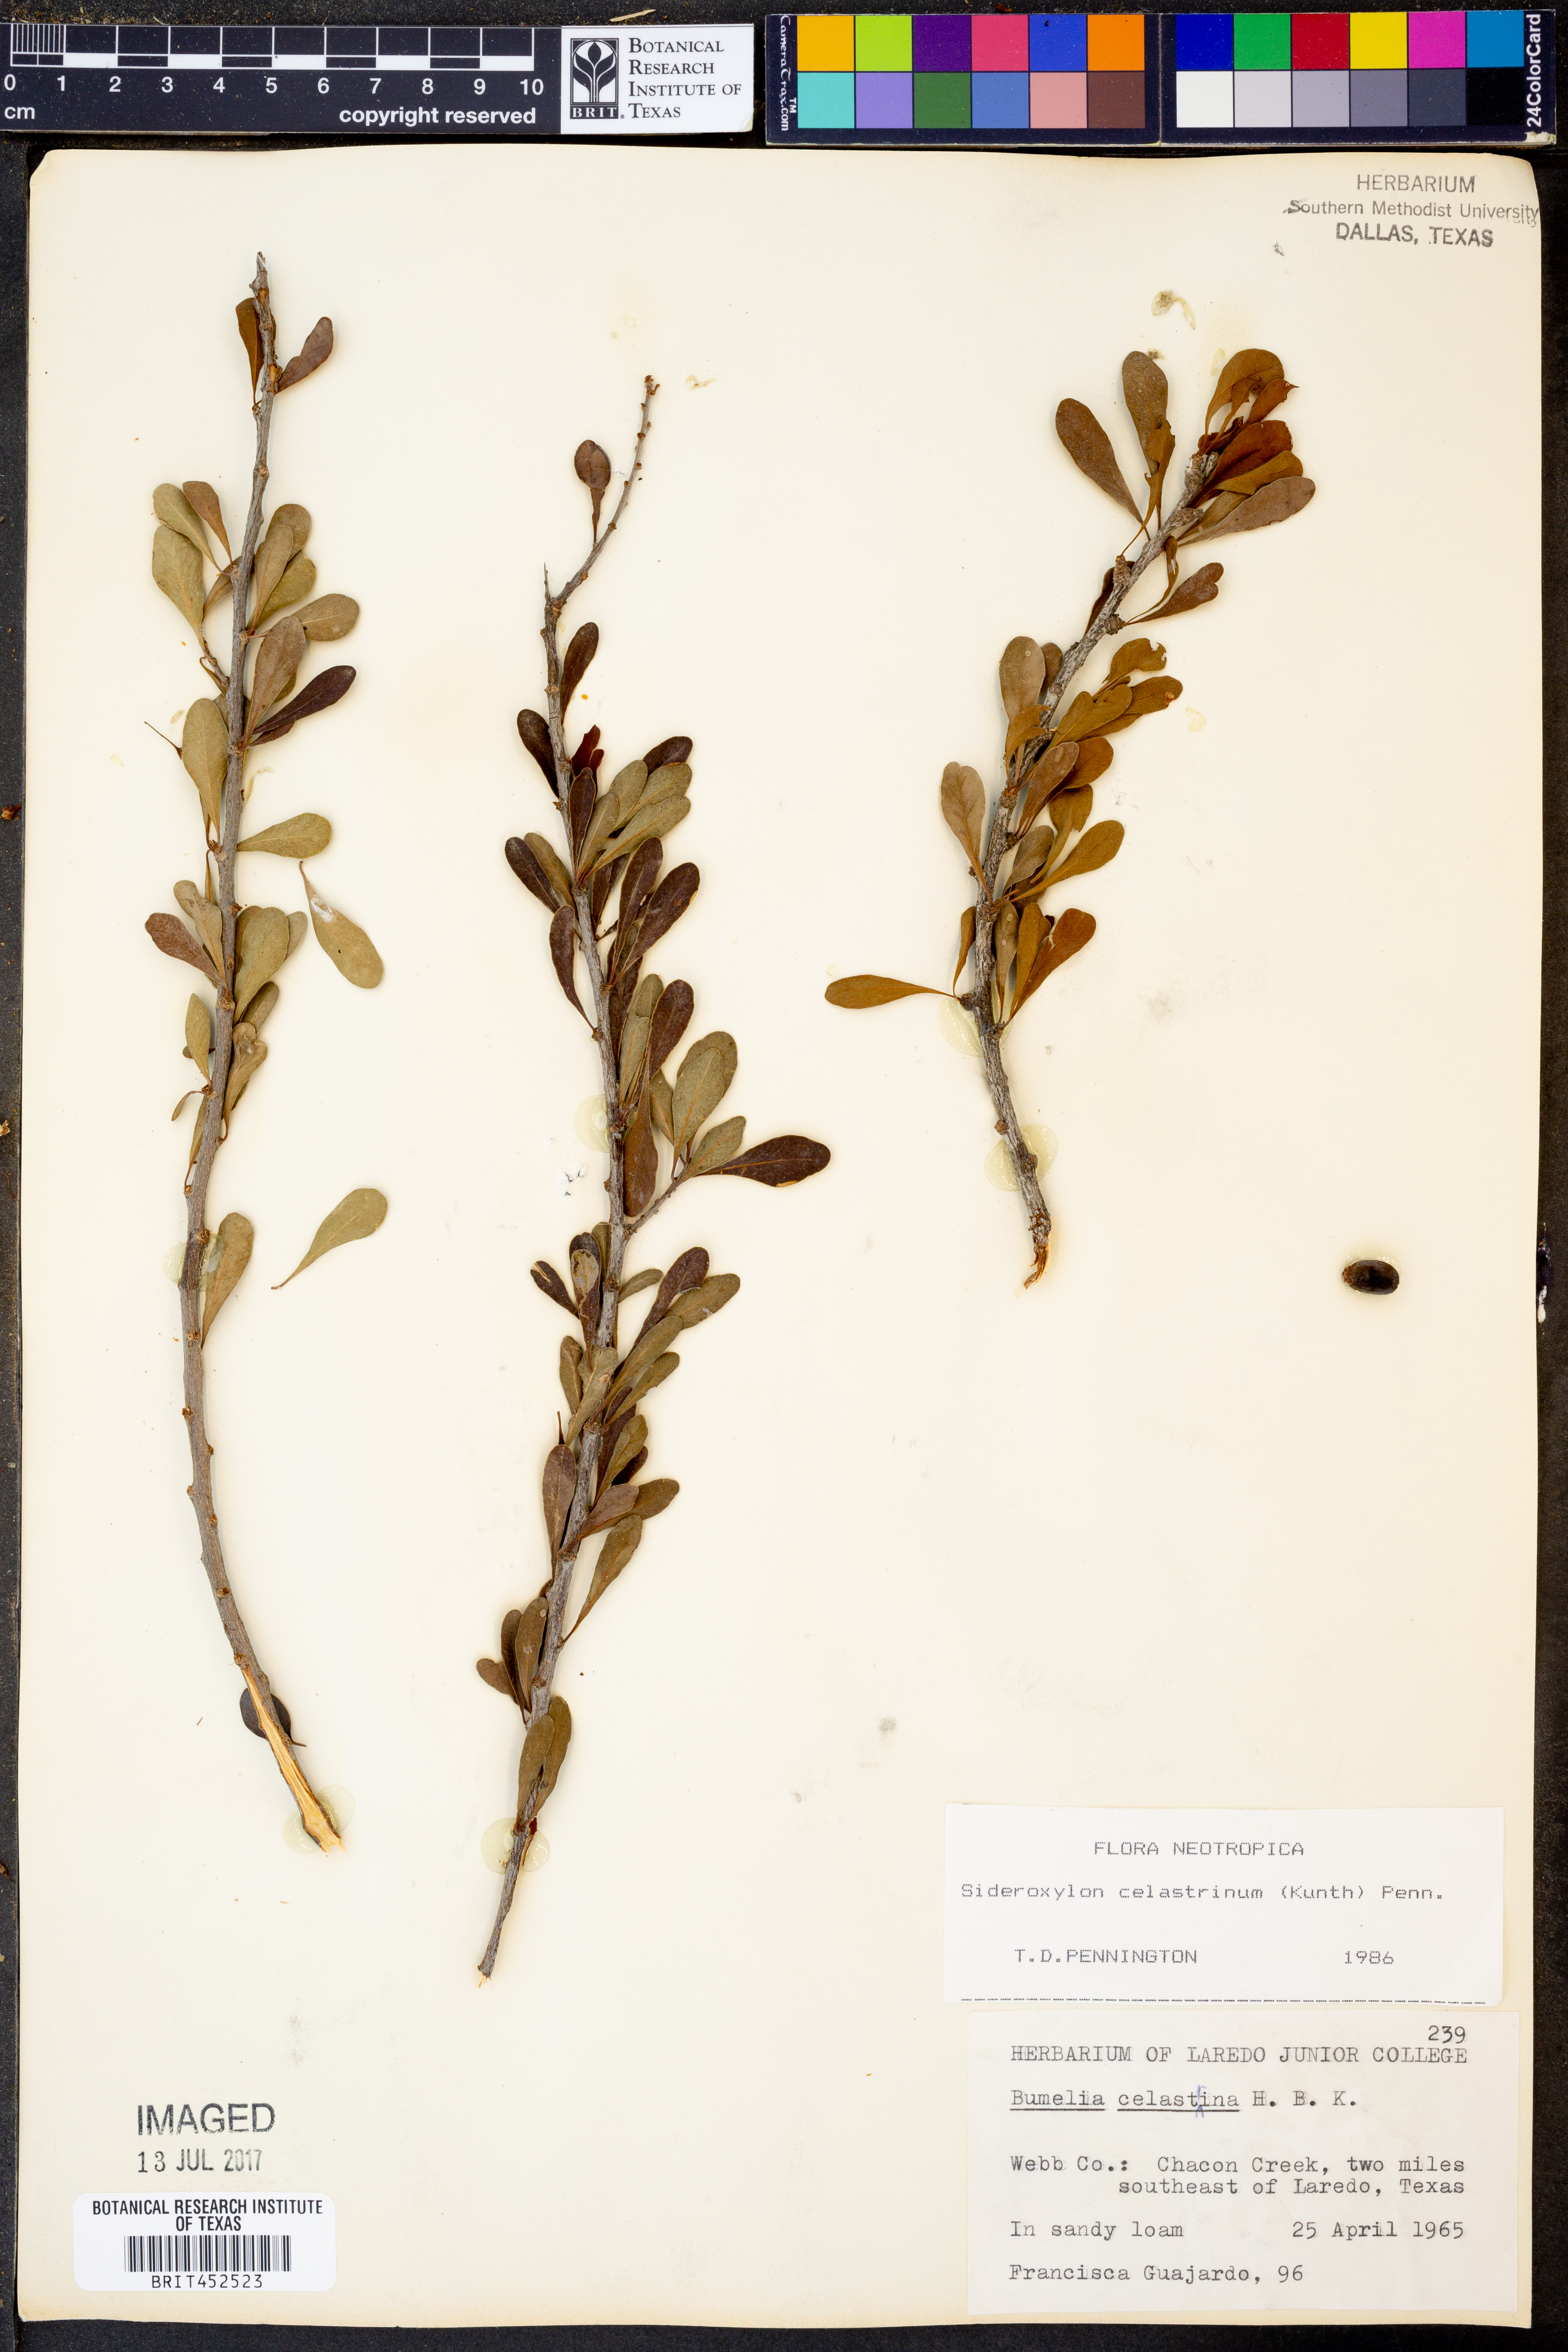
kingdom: Plantae
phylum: Tracheophyta
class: Magnoliopsida
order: Ericales
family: Sapotaceae
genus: Sideroxylon
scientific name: Sideroxylon celastrinum
